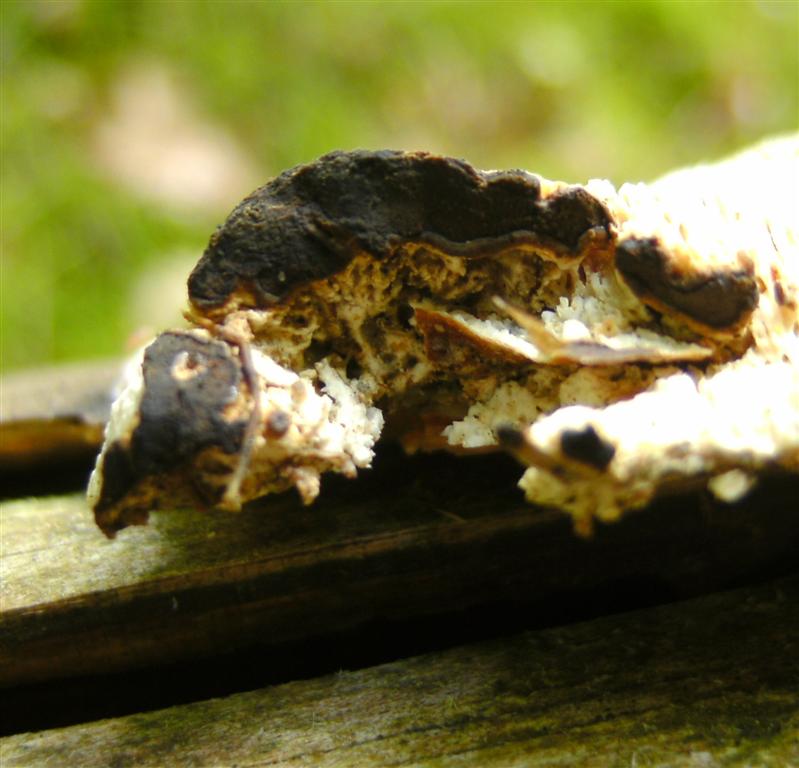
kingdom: Fungi
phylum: Basidiomycota
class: Agaricomycetes
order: Polyporales
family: Fomitopsidaceae
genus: Antrodia
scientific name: Antrodia sinuosa
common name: tømmer-sejporesvamp
